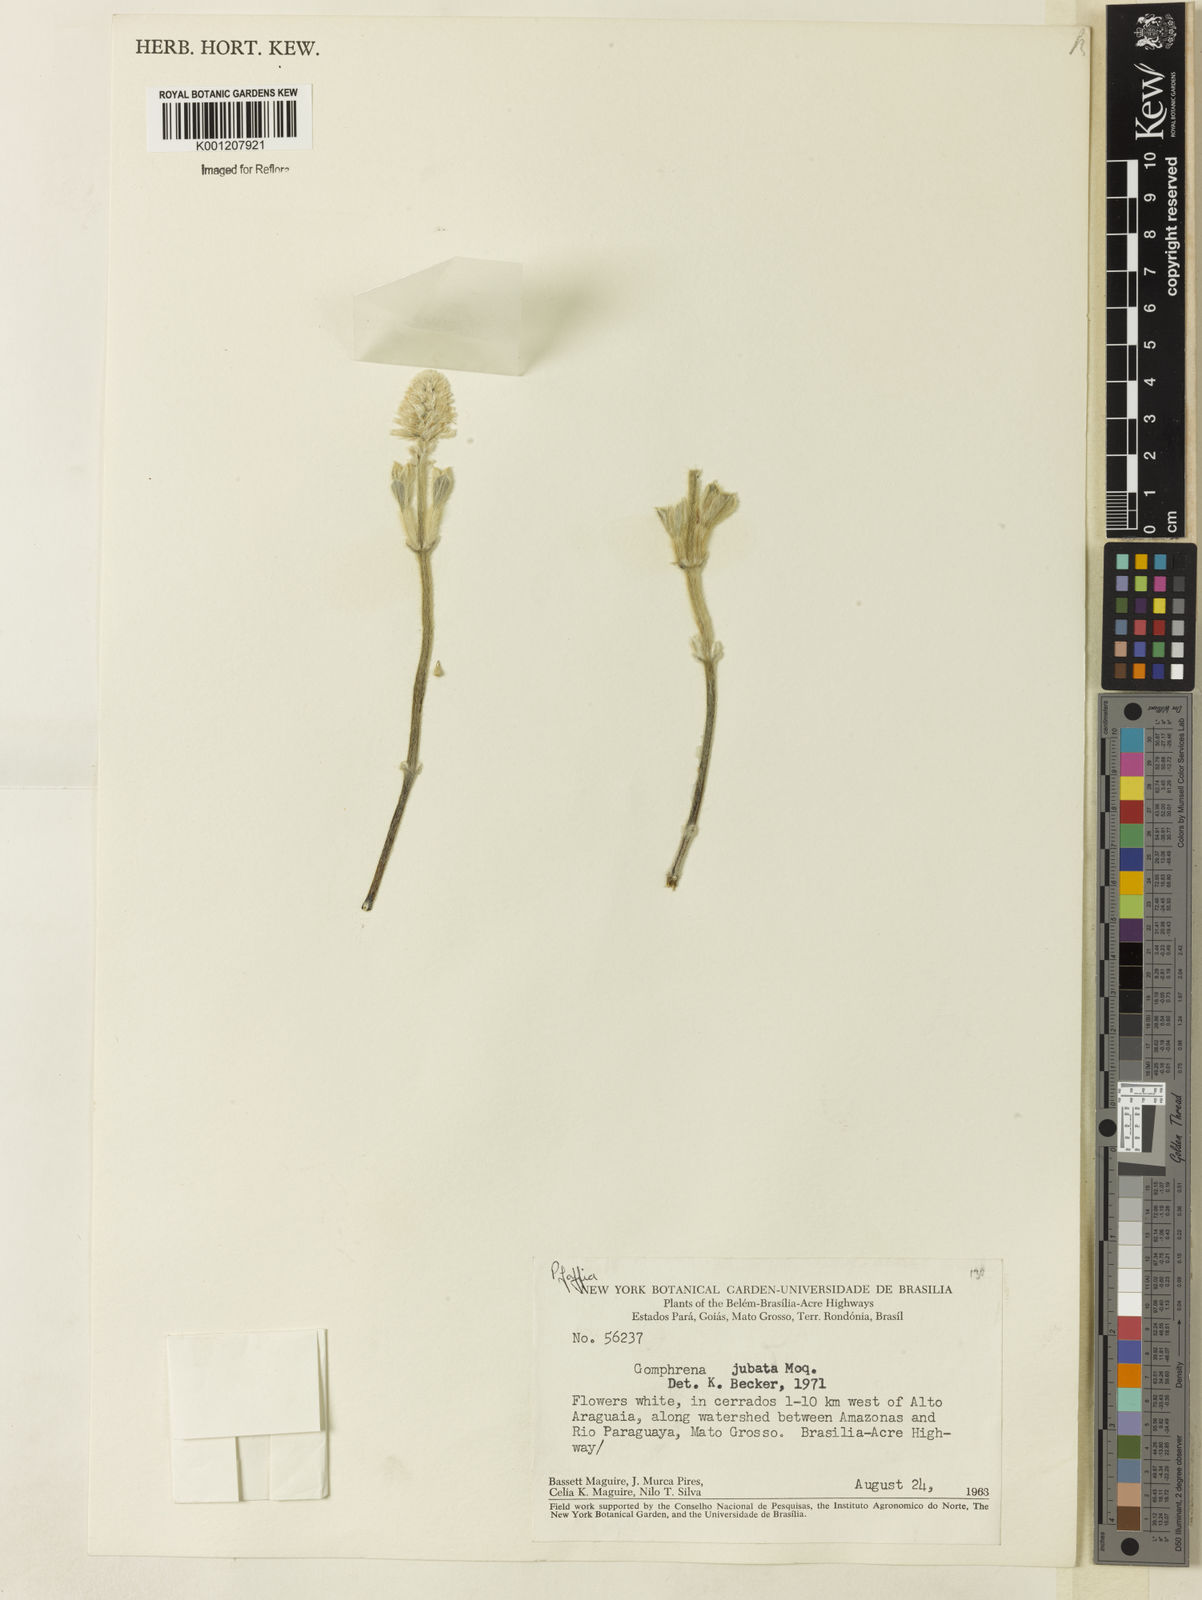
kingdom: Plantae
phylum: Tracheophyta
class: Magnoliopsida
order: Caryophyllales
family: Amaranthaceae
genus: Pfaffia
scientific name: Pfaffia jubata
